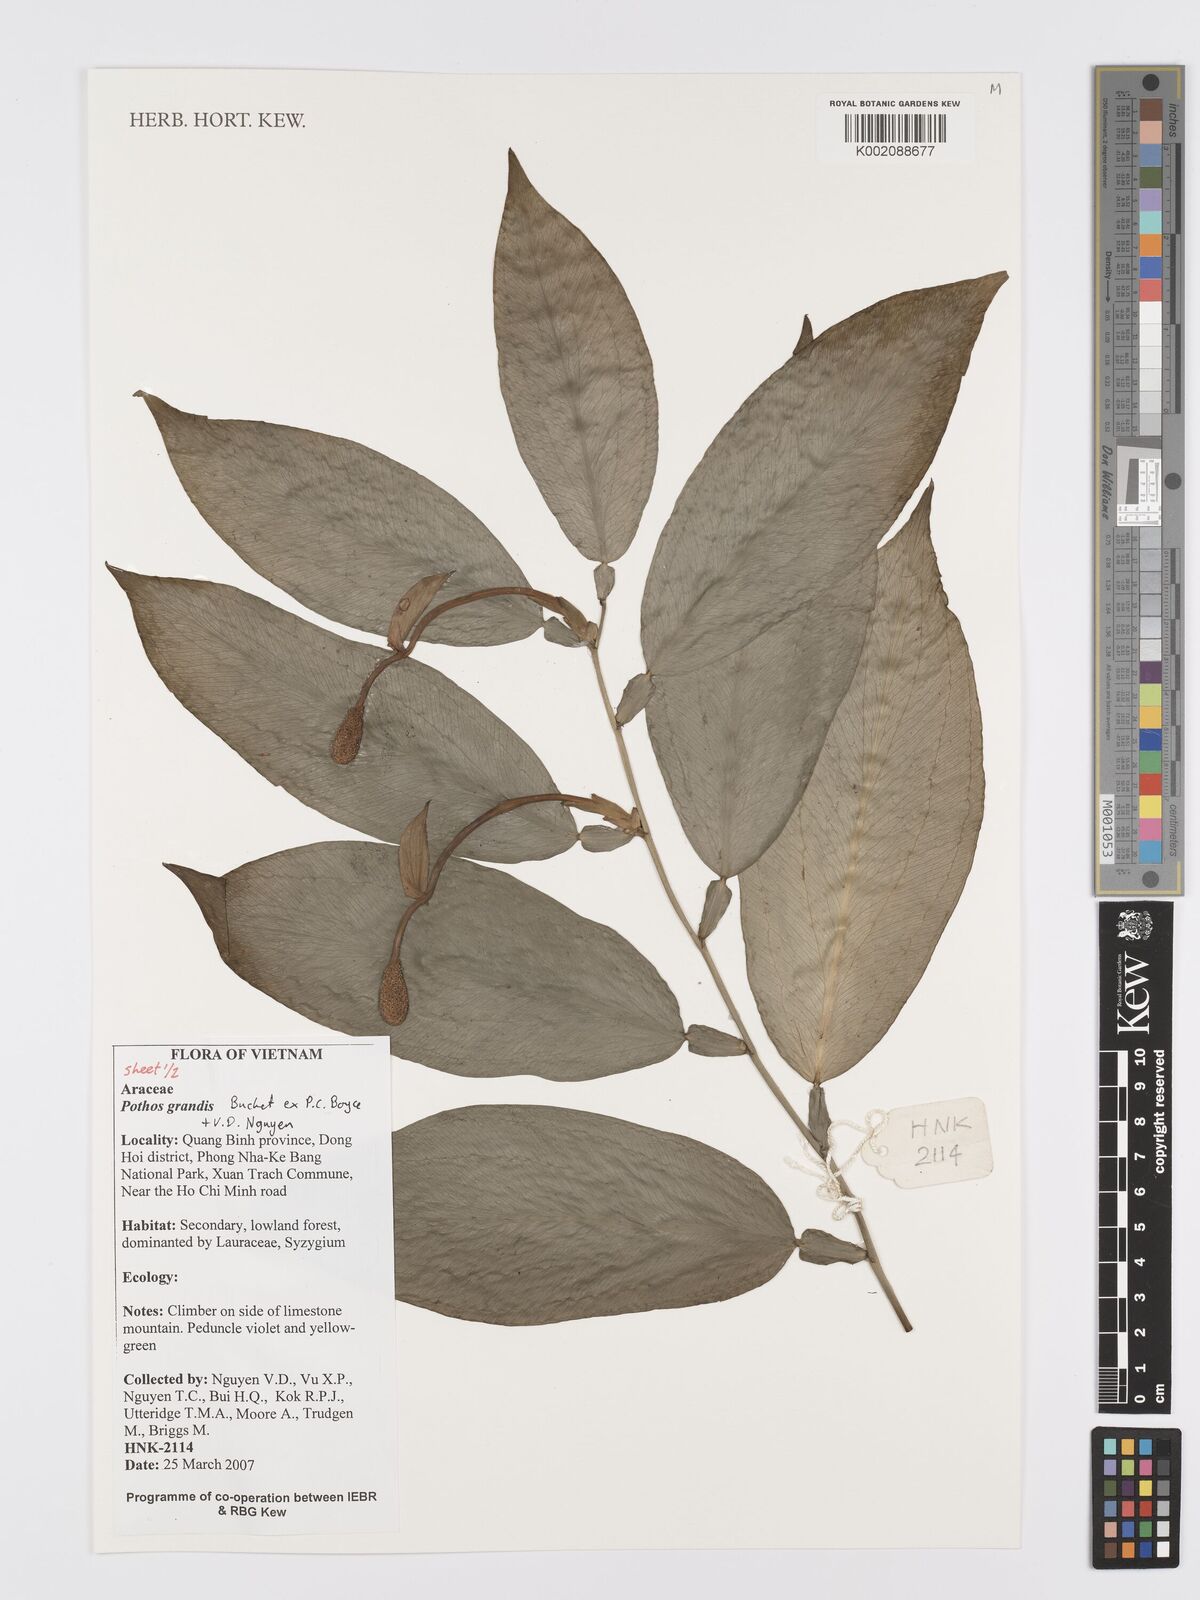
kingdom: Plantae
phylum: Tracheophyta
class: Liliopsida
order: Alismatales
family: Araceae
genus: Pothos
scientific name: Pothos grandis
